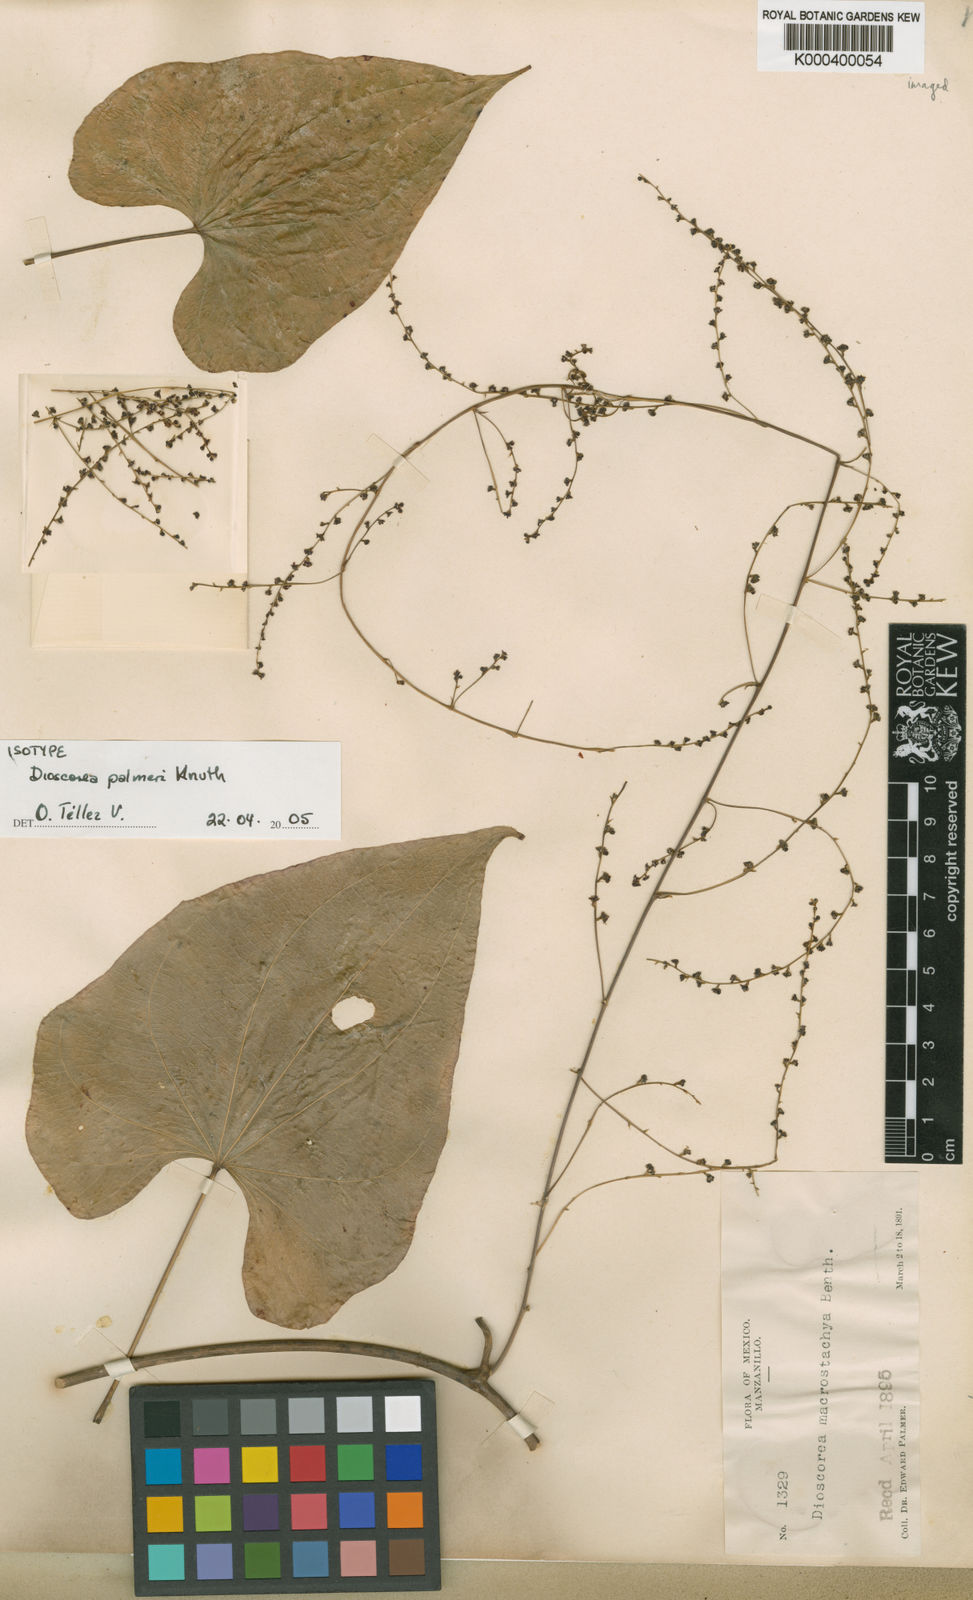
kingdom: Plantae
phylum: Tracheophyta
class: Liliopsida
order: Dioscoreales
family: Dioscoreaceae
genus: Dioscorea
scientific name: Dioscorea palmeri
